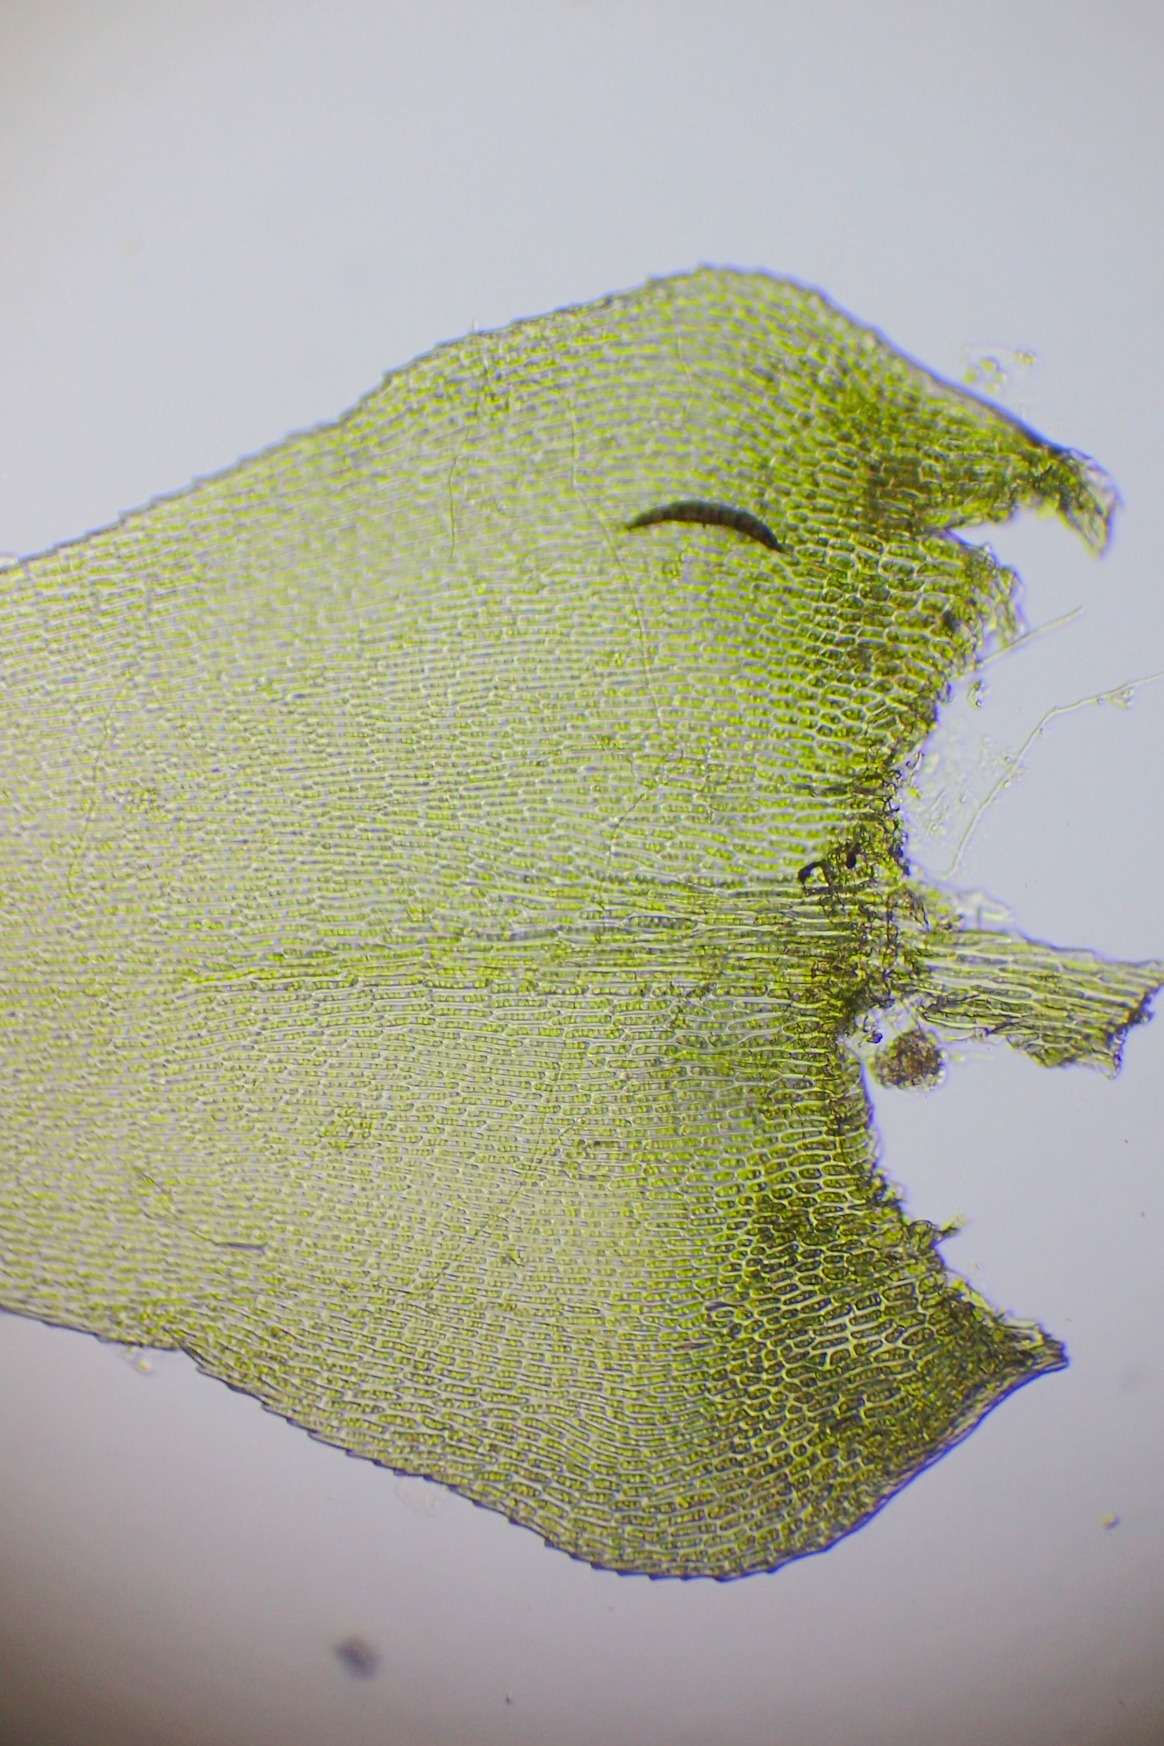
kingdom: Plantae
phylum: Bryophyta
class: Bryopsida
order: Hypnales
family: Lembophyllaceae
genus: Pseudisothecium
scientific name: Pseudisothecium myosuroides
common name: Slank stammemos
